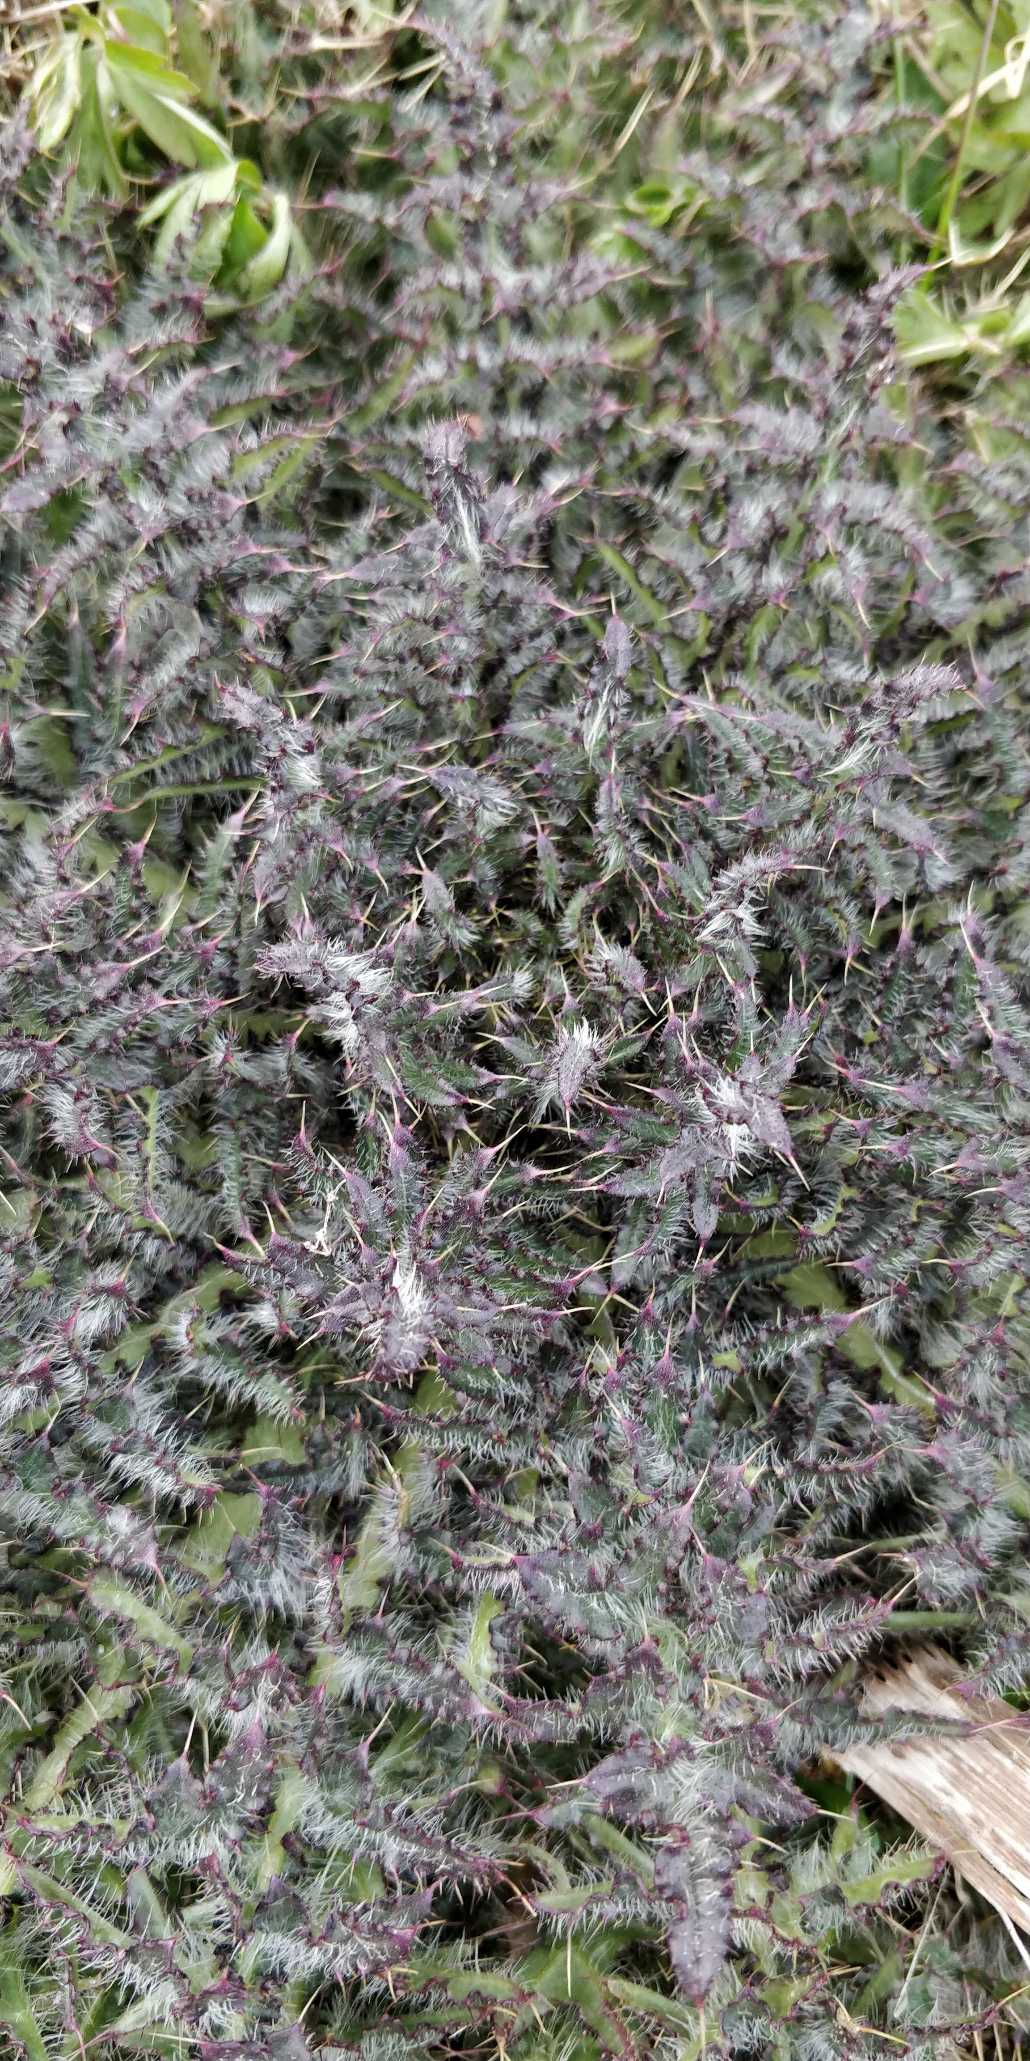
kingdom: Plantae
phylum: Tracheophyta
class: Magnoliopsida
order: Asterales
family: Asteraceae
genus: Cirsium
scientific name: Cirsium palustre
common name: Kær-tidsel
